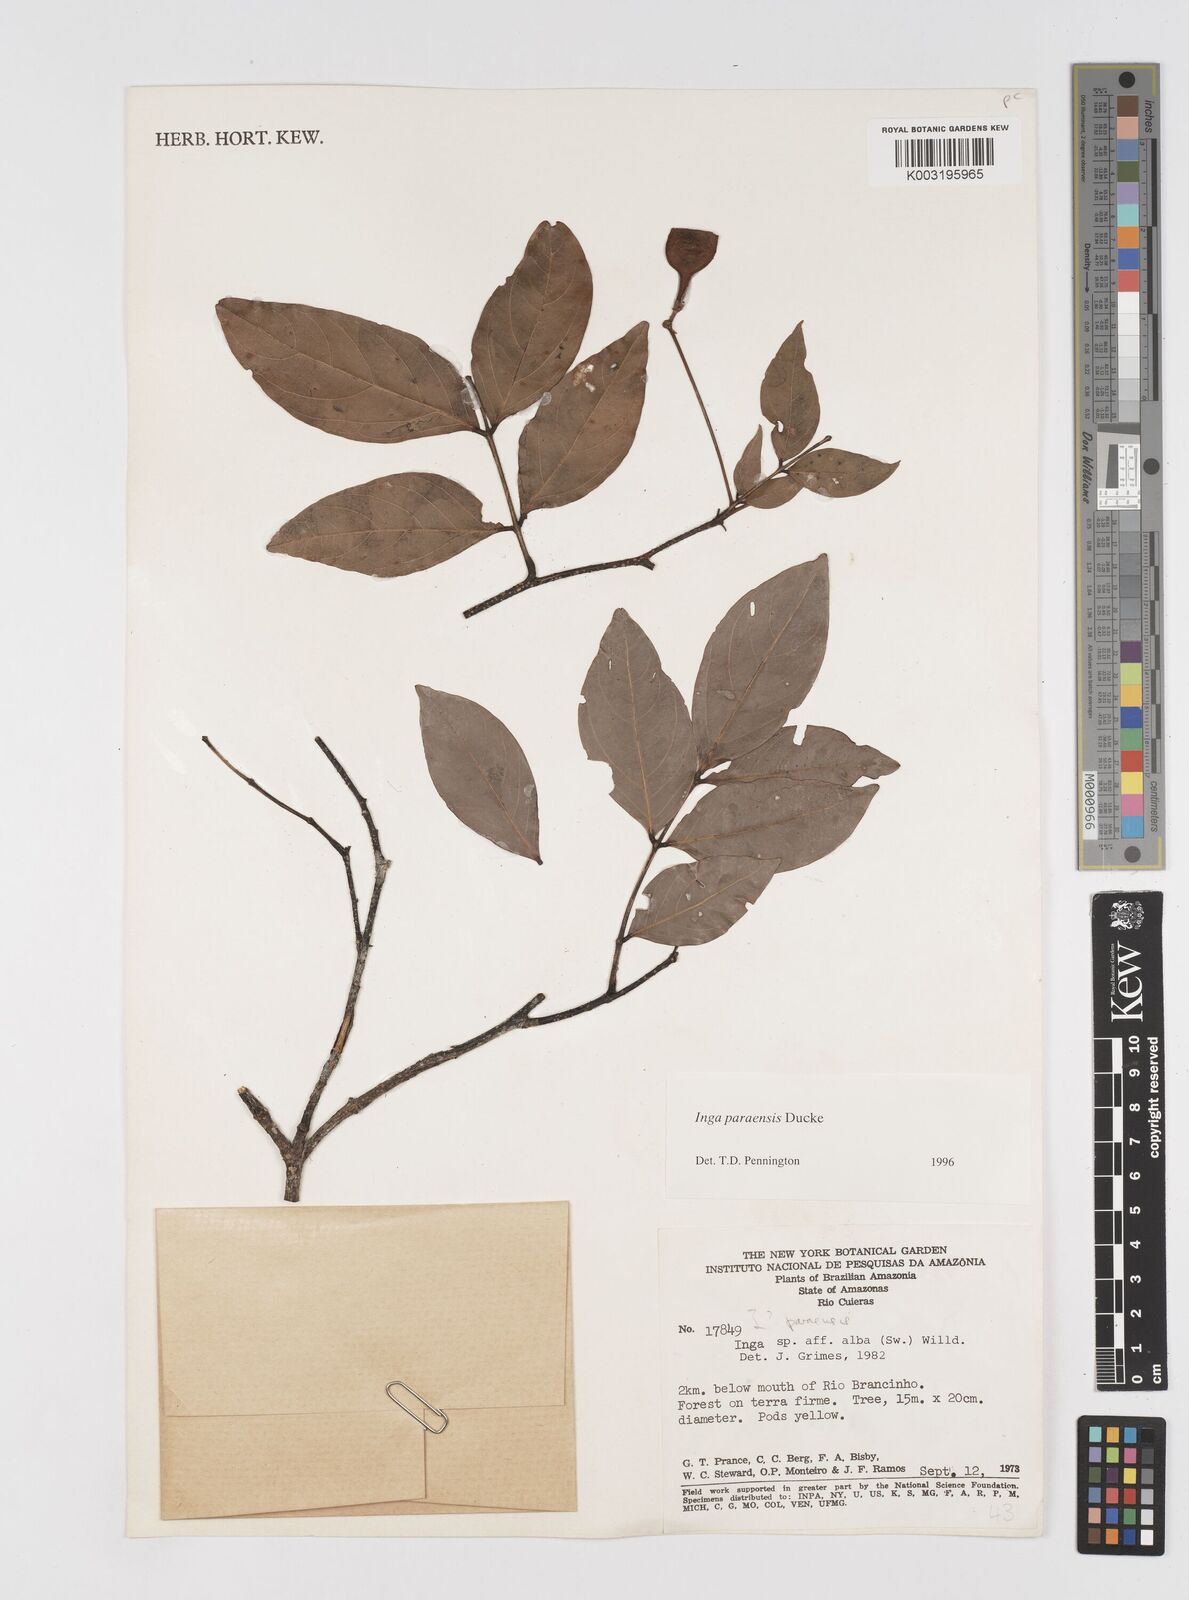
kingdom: Plantae
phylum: Tracheophyta
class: Magnoliopsida
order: Fabales
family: Fabaceae
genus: Inga
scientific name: Inga paraensis
